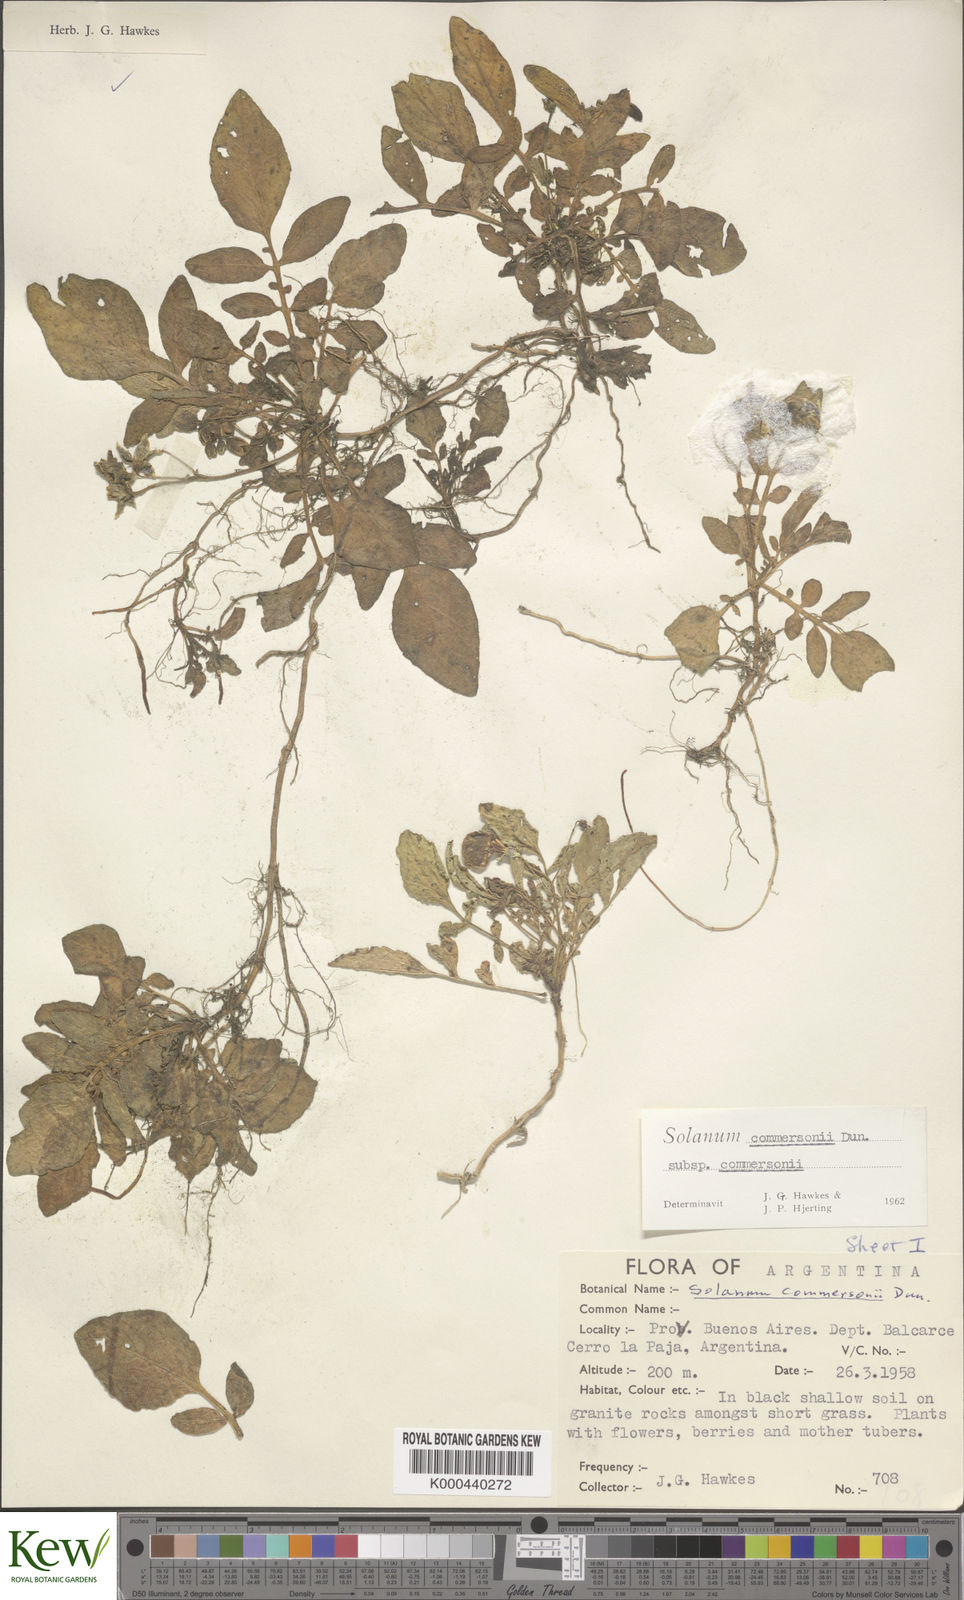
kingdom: Plantae
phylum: Tracheophyta
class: Magnoliopsida
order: Solanales
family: Solanaceae
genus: Solanum
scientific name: Solanum commersonii
